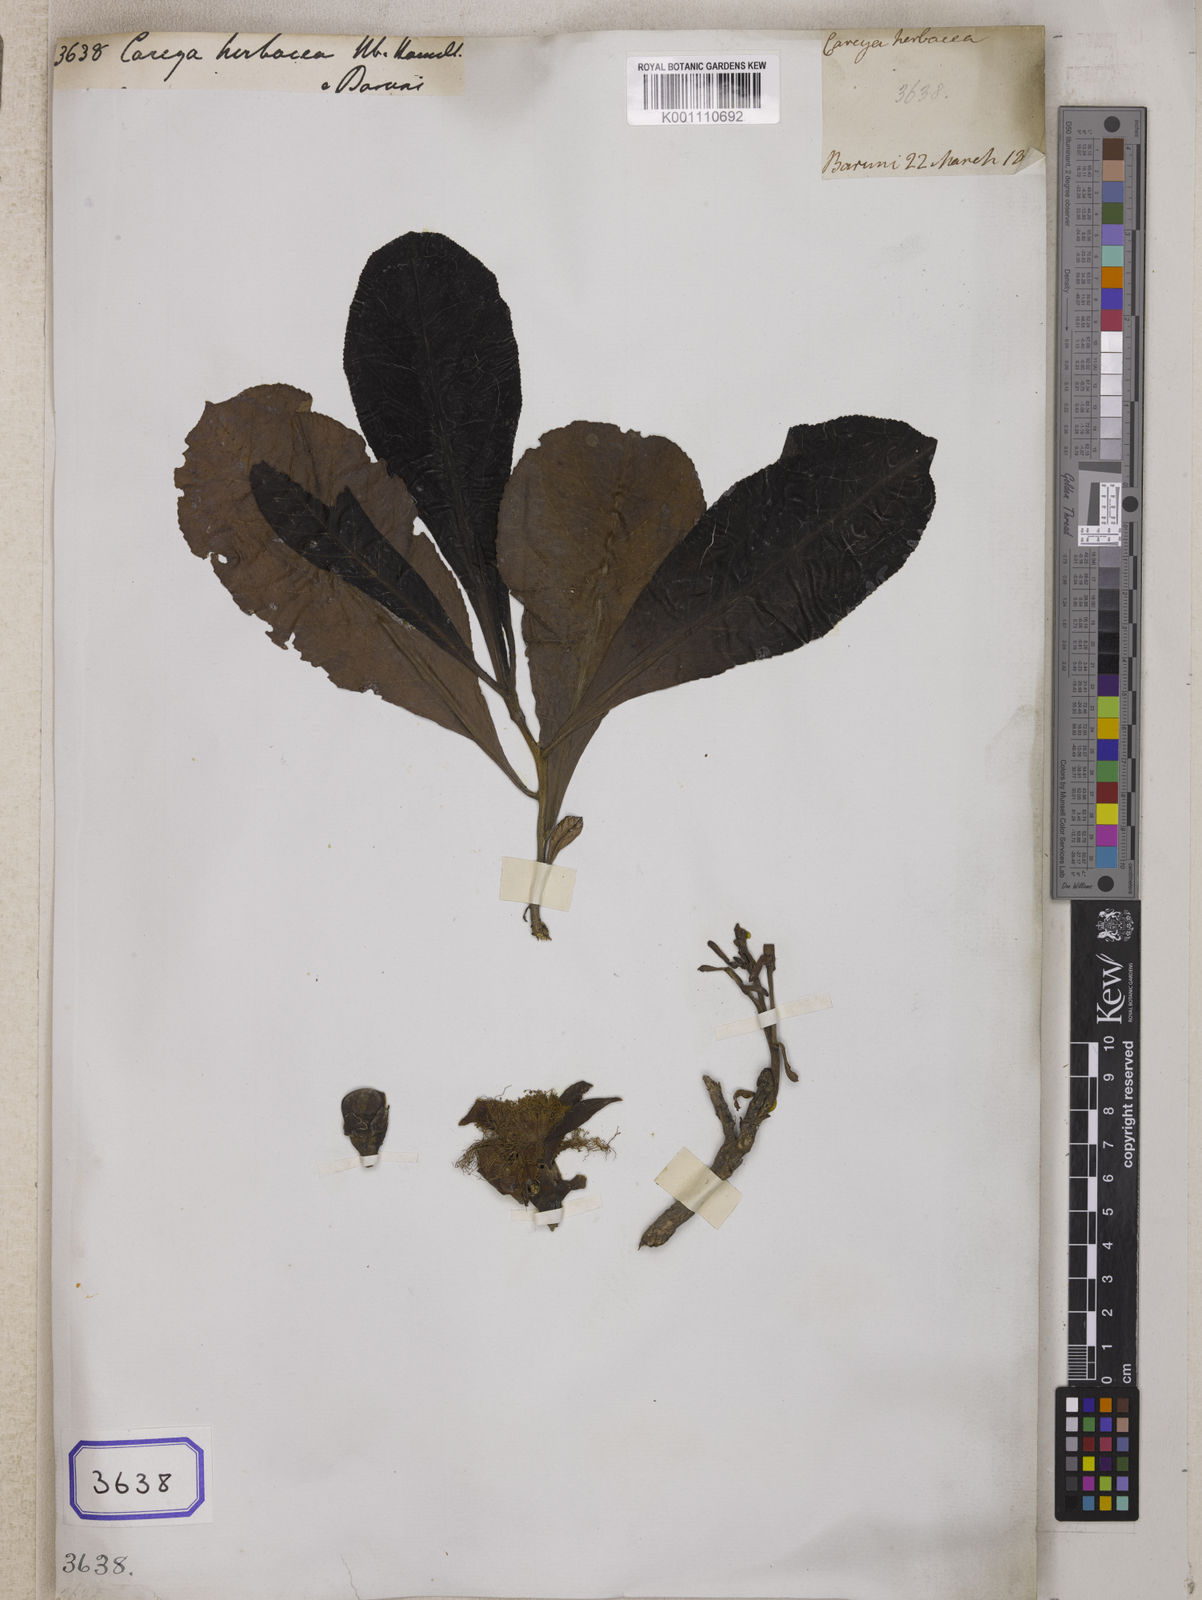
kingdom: Plantae
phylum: Tracheophyta
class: Magnoliopsida
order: Ericales
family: Lecythidaceae
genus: Careya
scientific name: Careya herbacea
